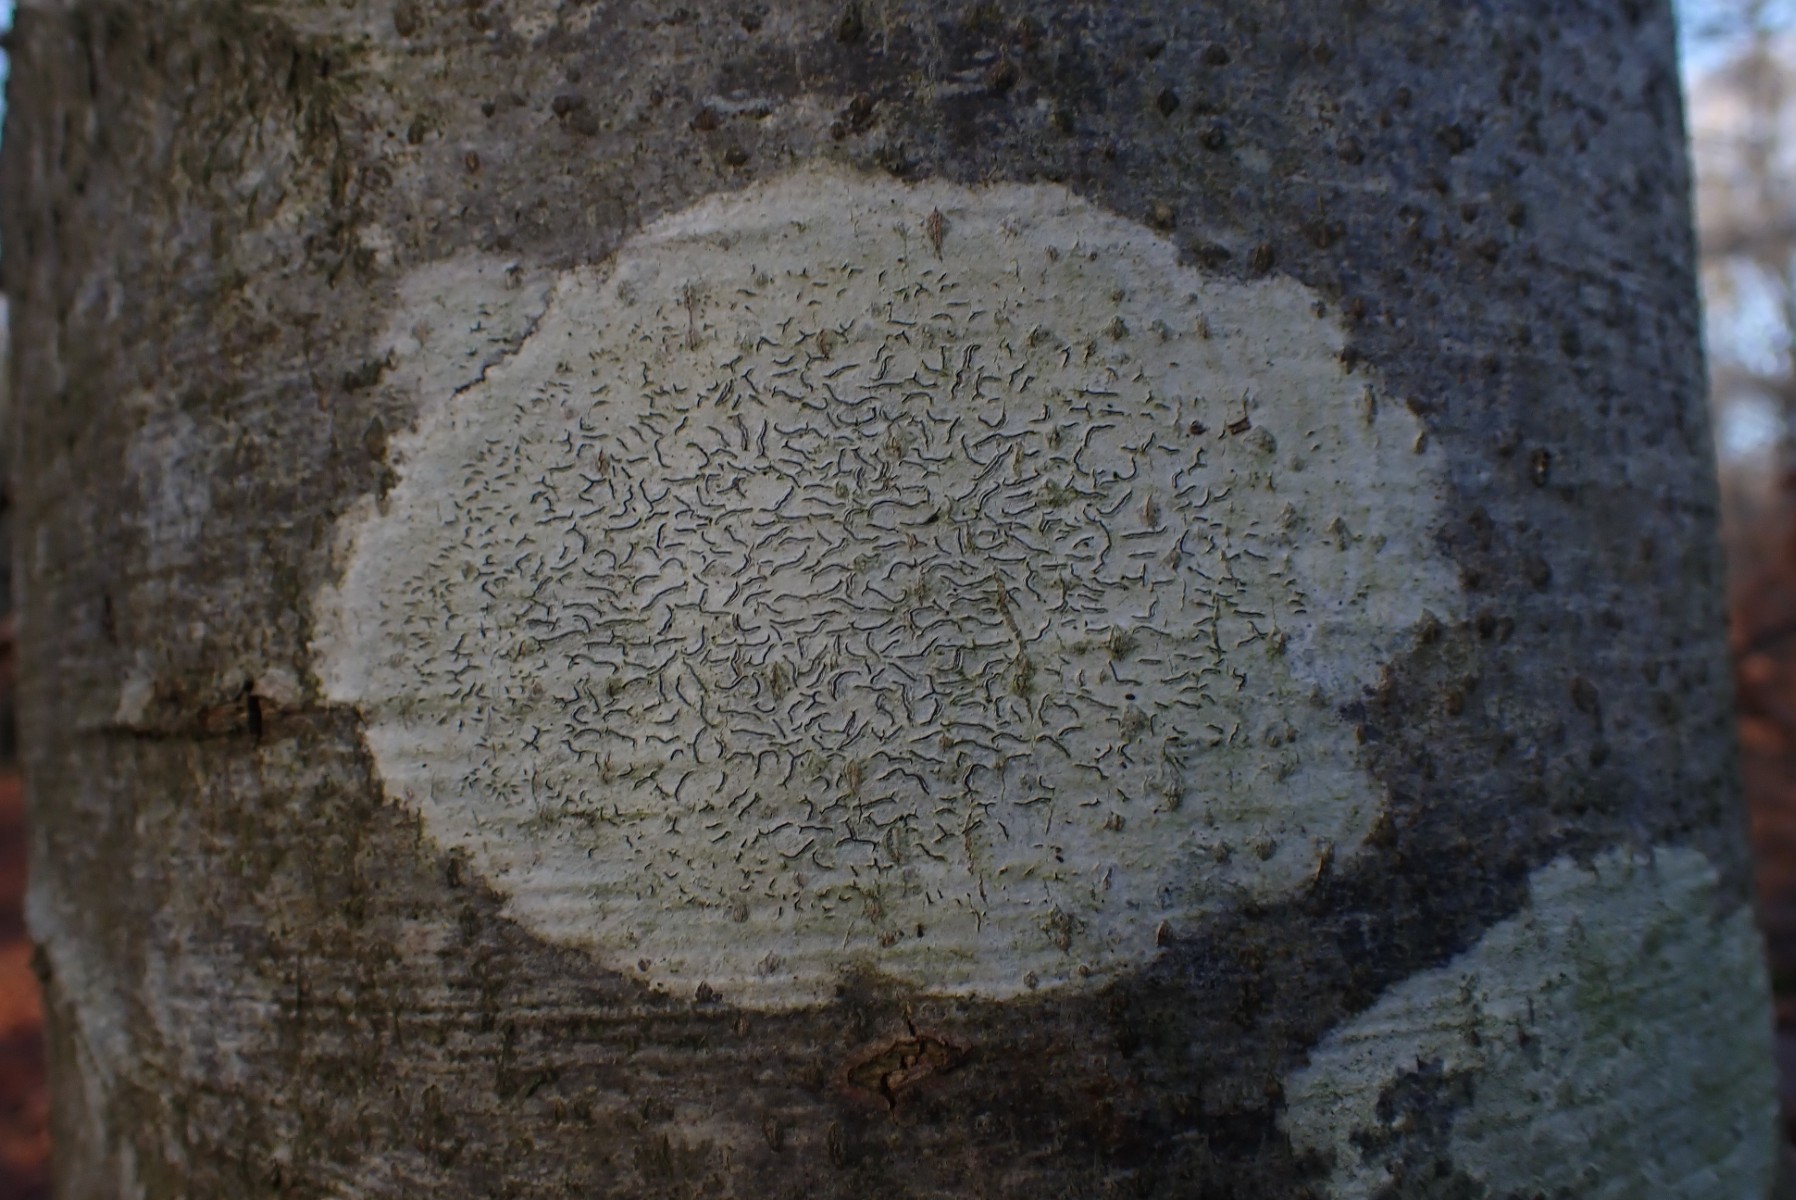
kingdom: Fungi
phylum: Ascomycota
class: Lecanoromycetes
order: Ostropales
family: Graphidaceae
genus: Graphis
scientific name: Graphis scripta
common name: almindelig skriftlav
